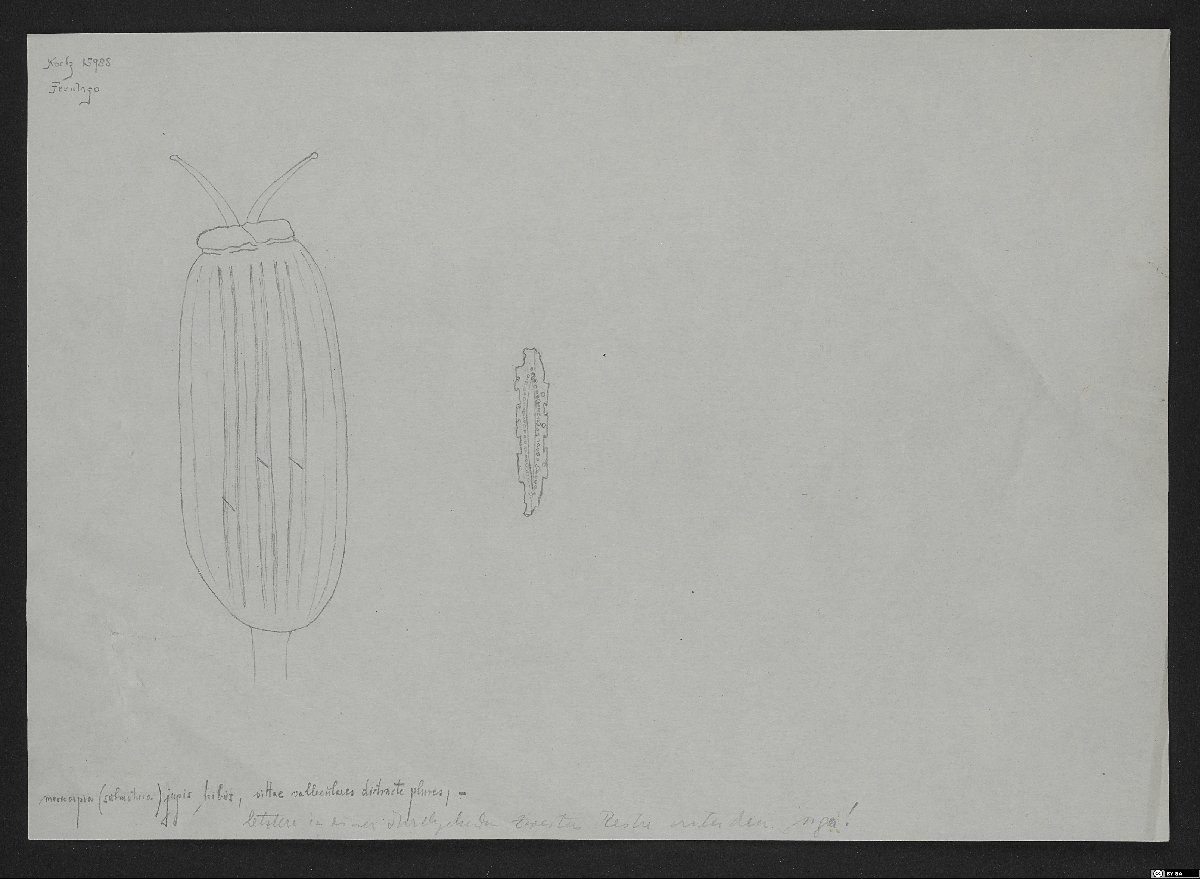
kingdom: Plantae
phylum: Tracheophyta
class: Magnoliopsida
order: Lamiales
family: Acanthaceae
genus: Thunbergia
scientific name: Thunbergia hamata
